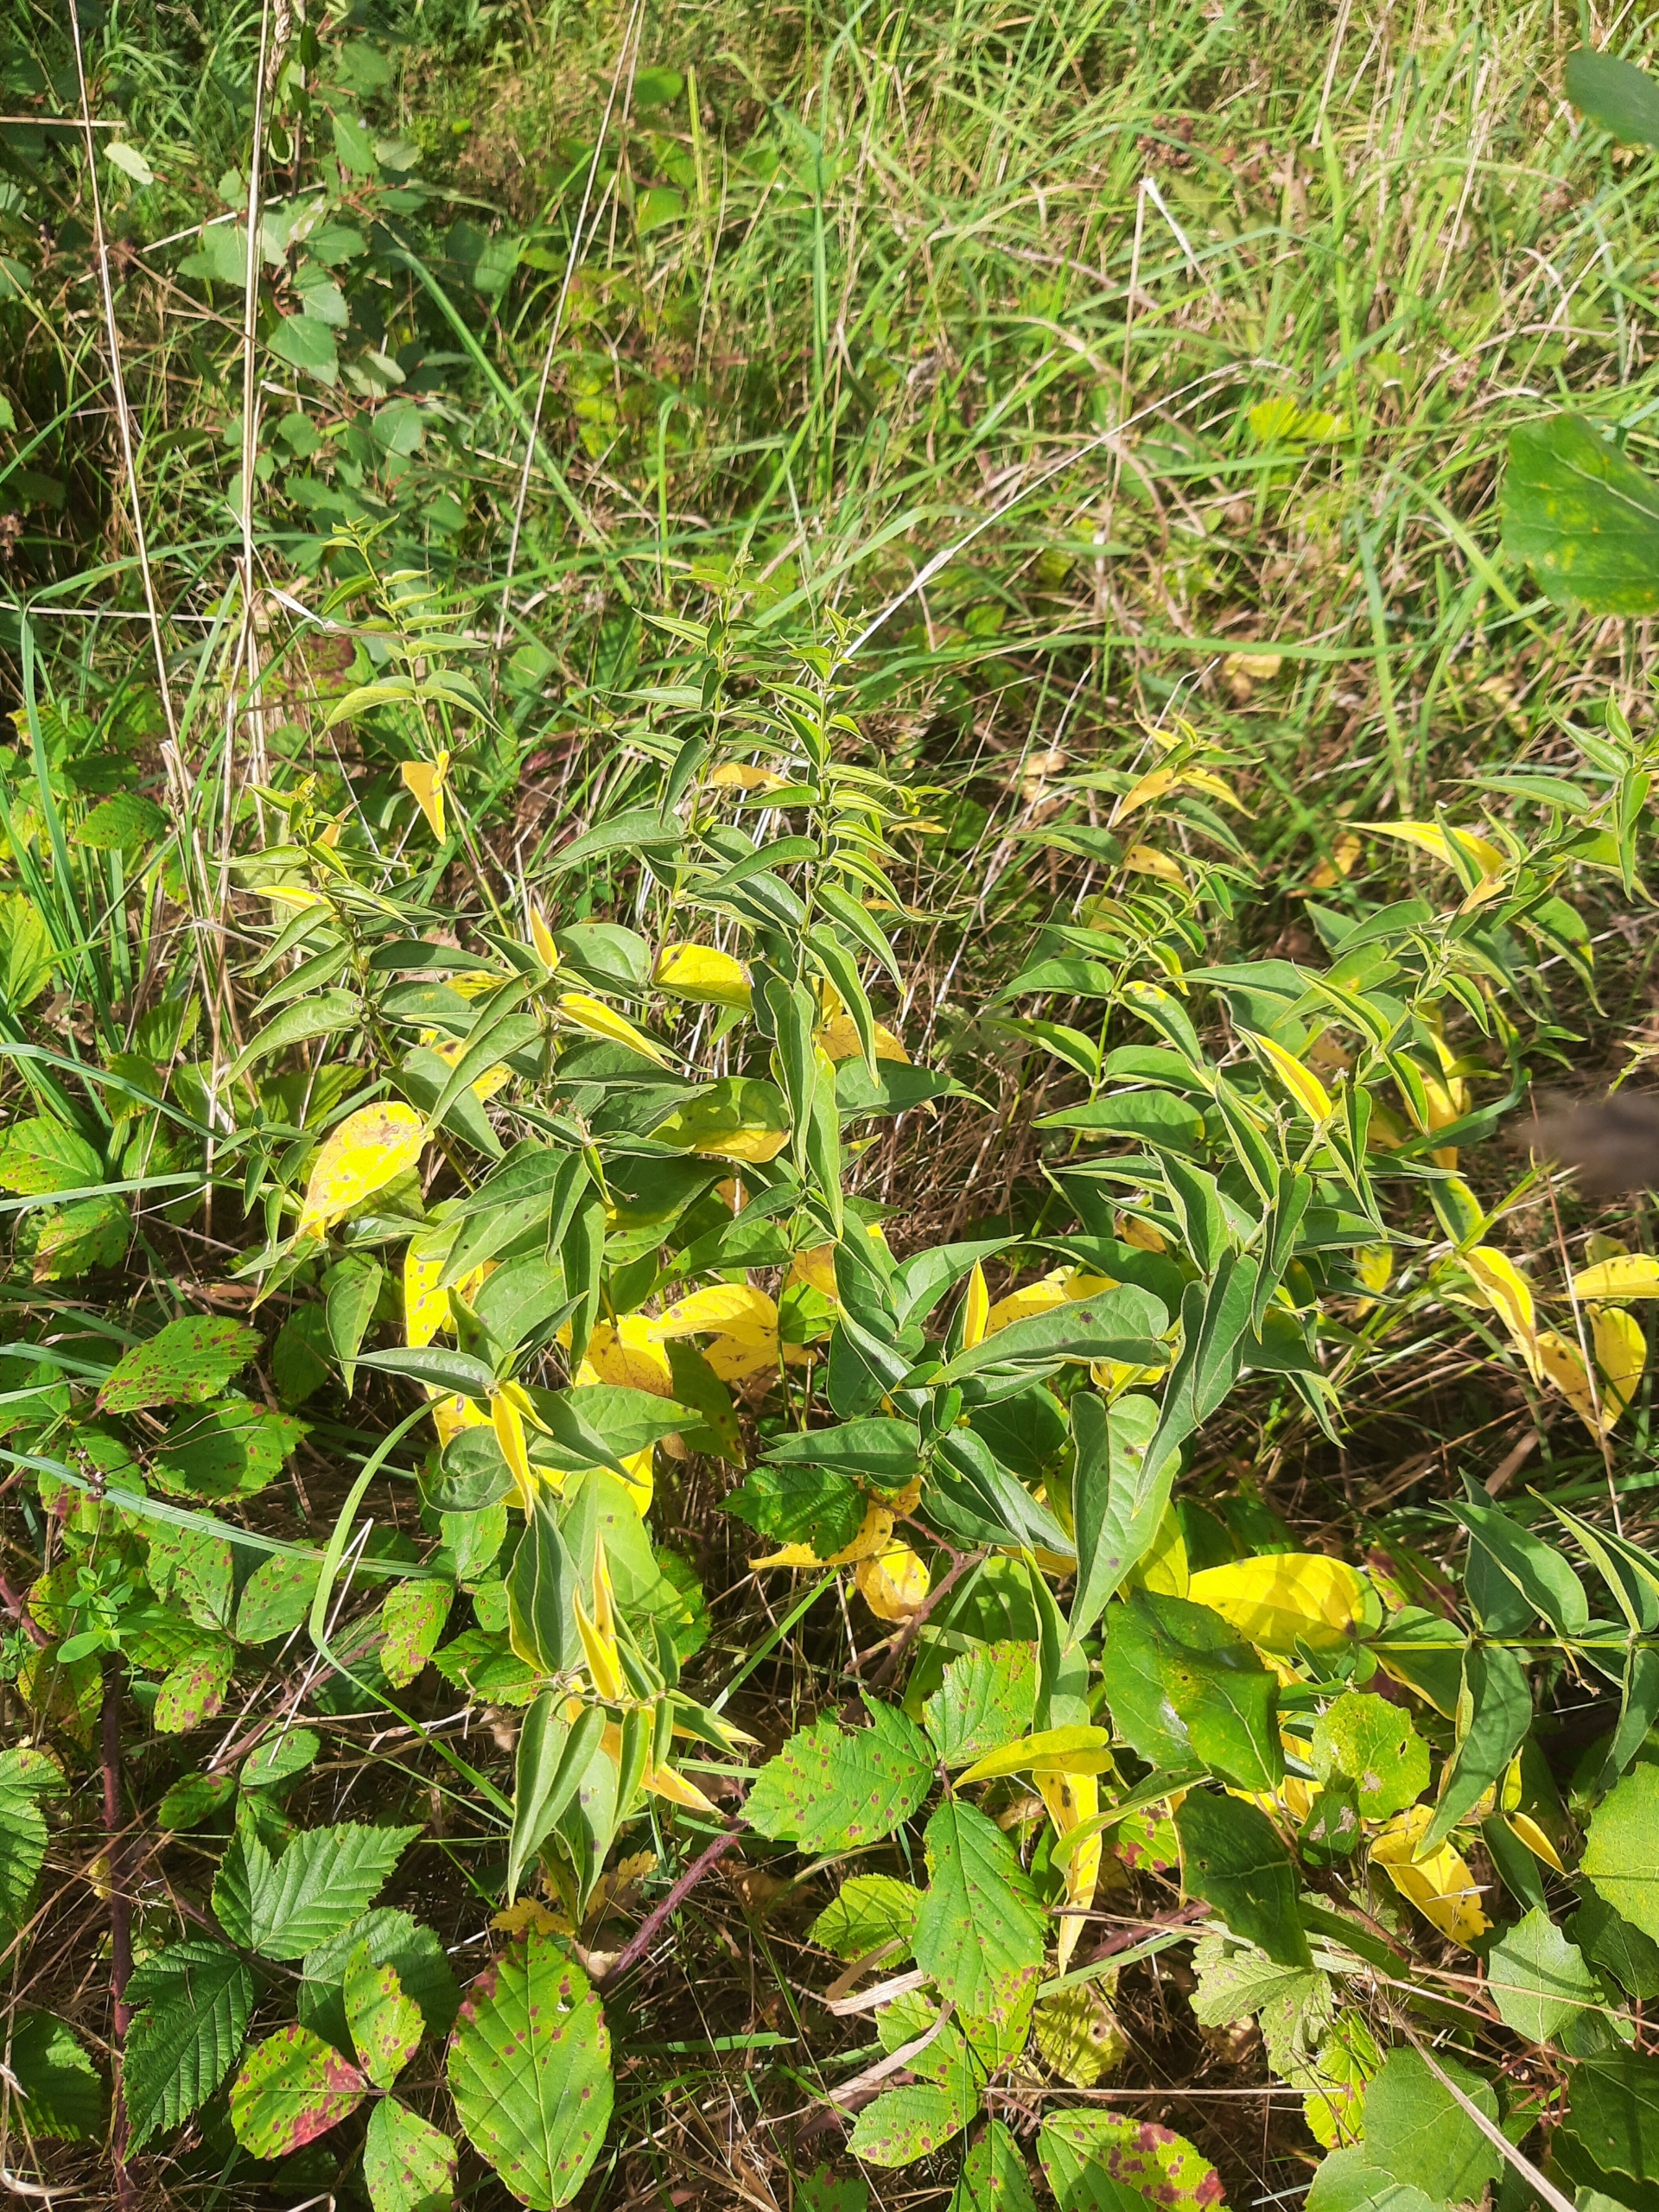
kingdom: Plantae
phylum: Tracheophyta
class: Magnoliopsida
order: Gentianales
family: Apocynaceae
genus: Vincetoxicum
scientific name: Vincetoxicum hirundinaria
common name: Svalerod
